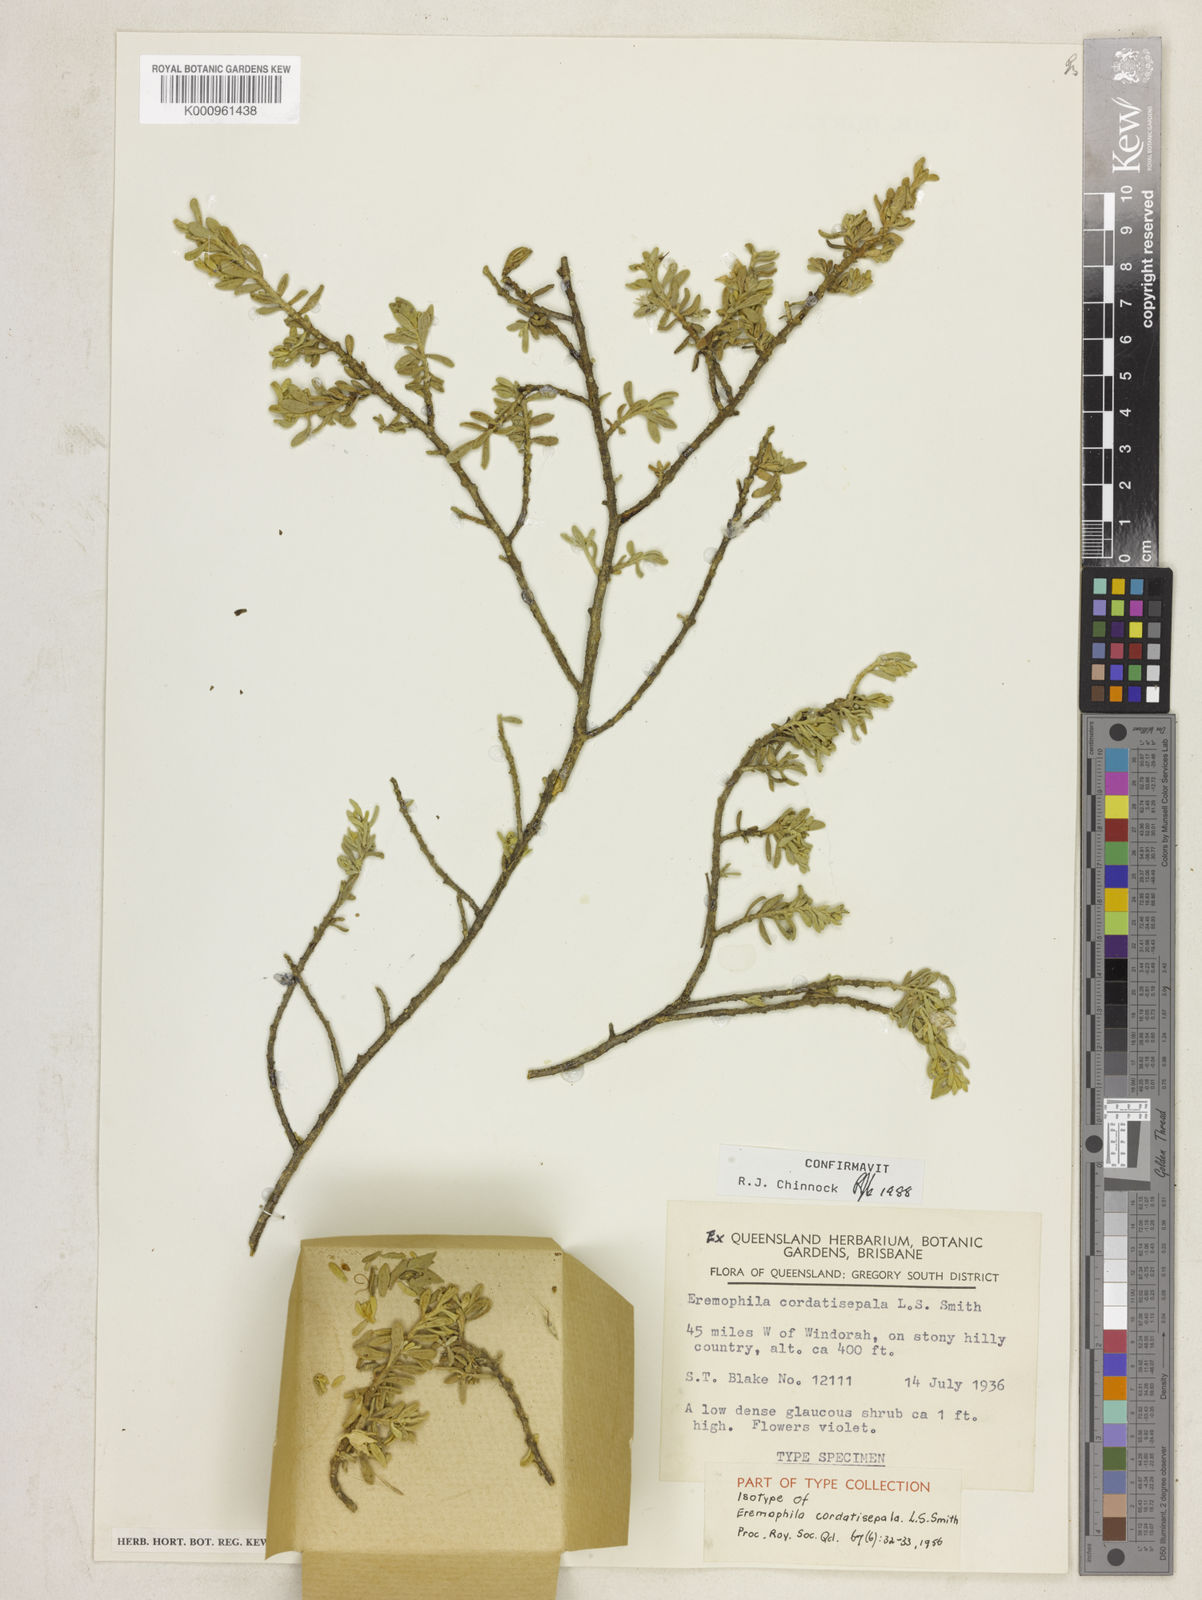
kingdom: Plantae
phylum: Tracheophyta
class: Magnoliopsida
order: Lamiales
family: Scrophulariaceae
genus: Eremophila
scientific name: Eremophila cordatisepala
